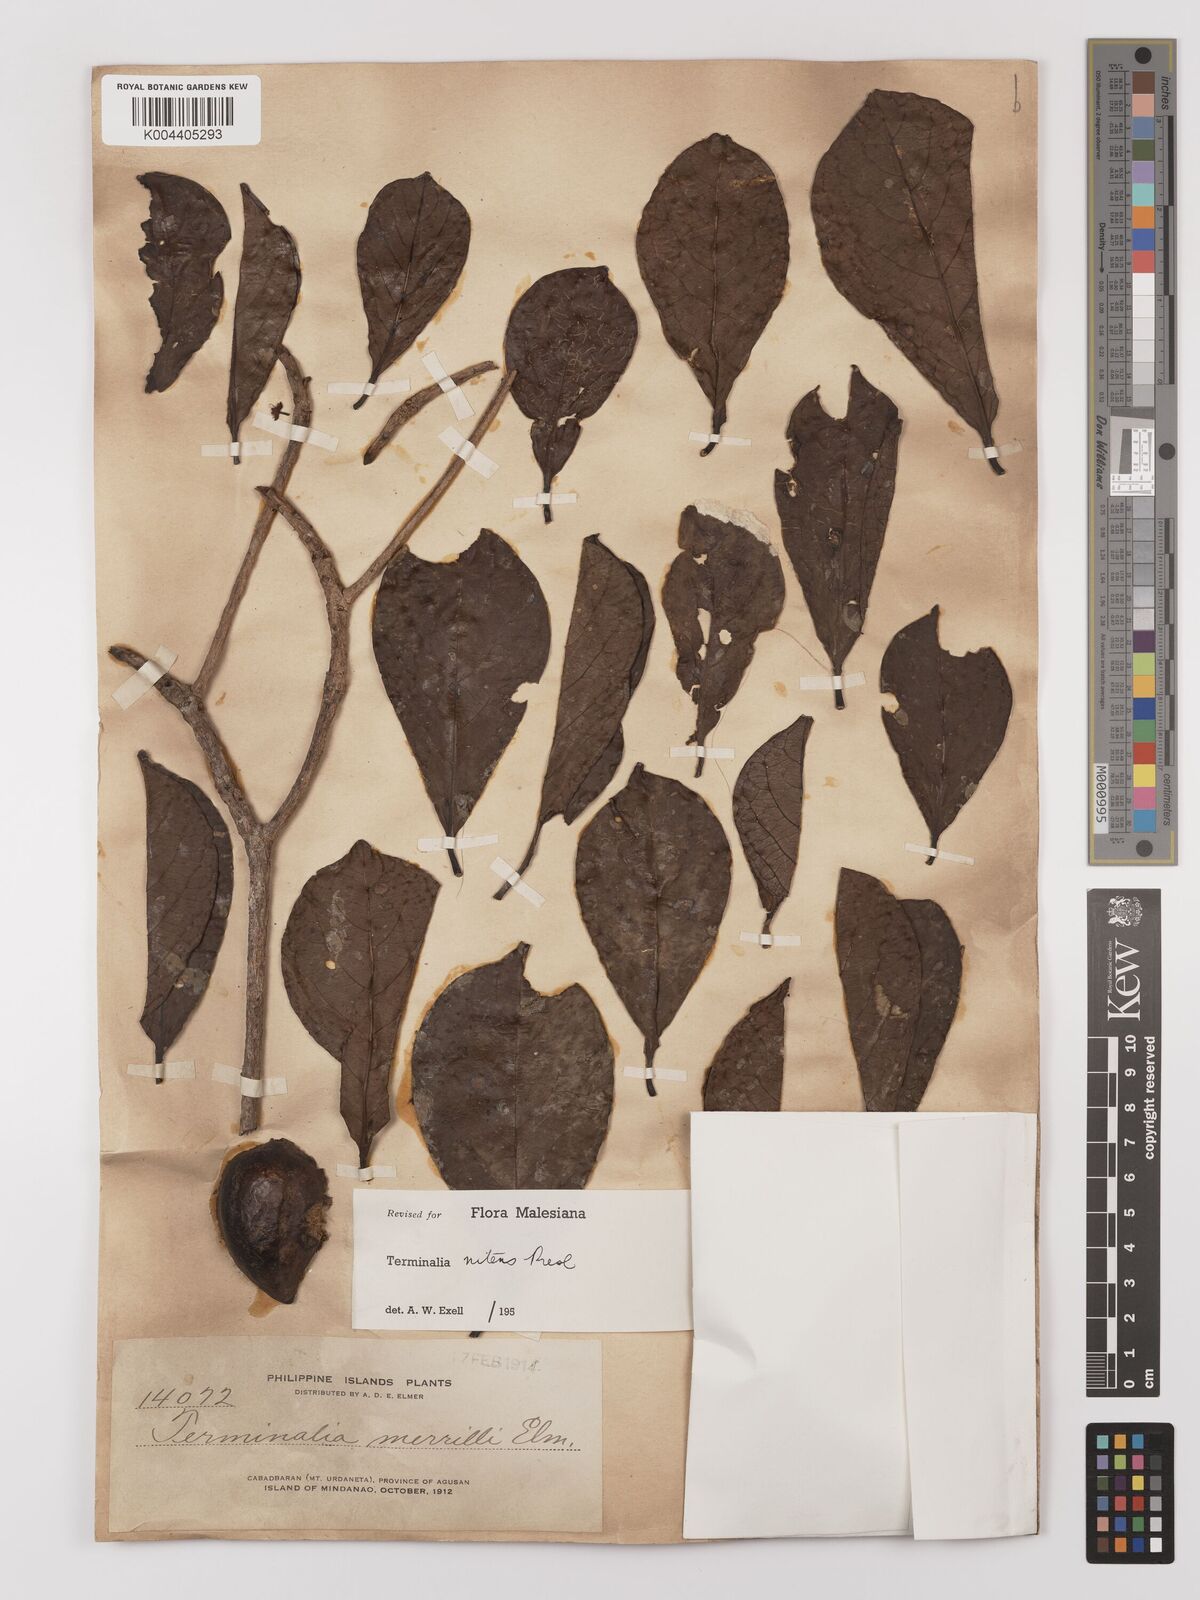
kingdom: Plantae
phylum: Tracheophyta
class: Magnoliopsida
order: Myrtales
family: Combretaceae
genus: Terminalia
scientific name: Terminalia nitens
